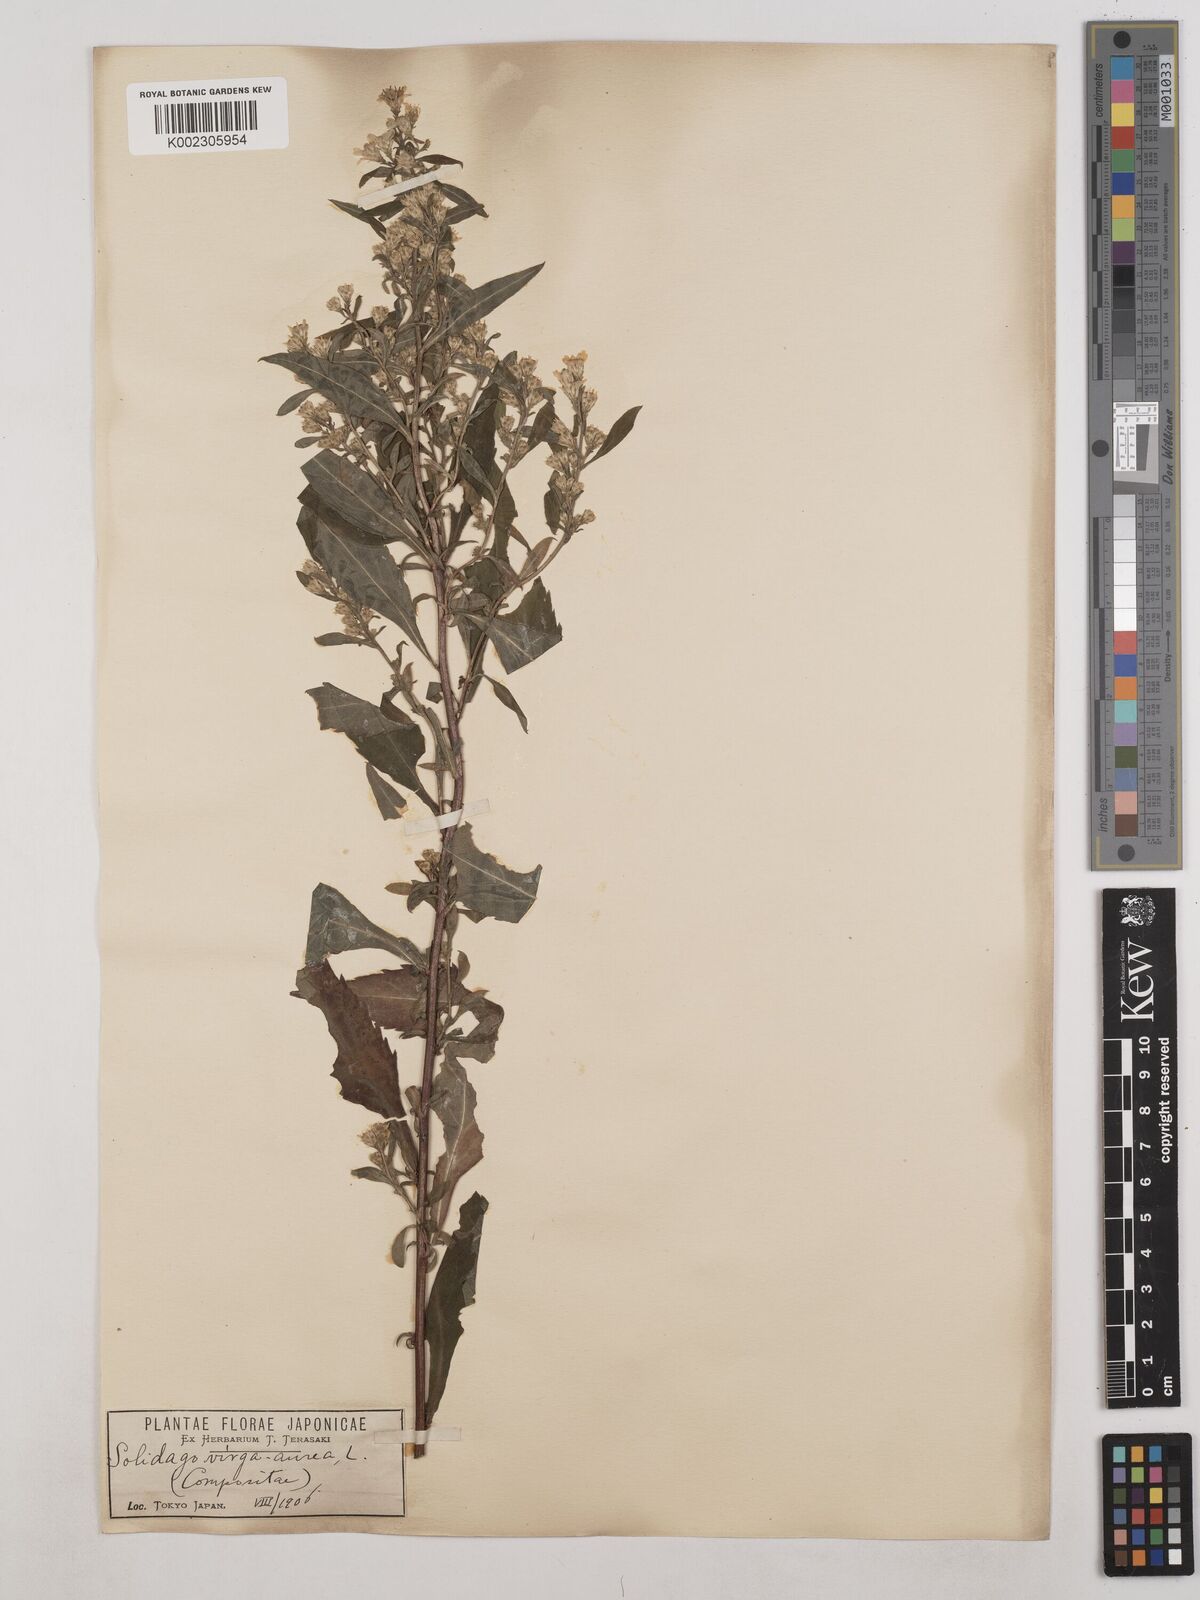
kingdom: Plantae
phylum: Tracheophyta
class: Magnoliopsida
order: Asterales
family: Asteraceae
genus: Solidago
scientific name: Solidago virgaurea
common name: Goldenrod
